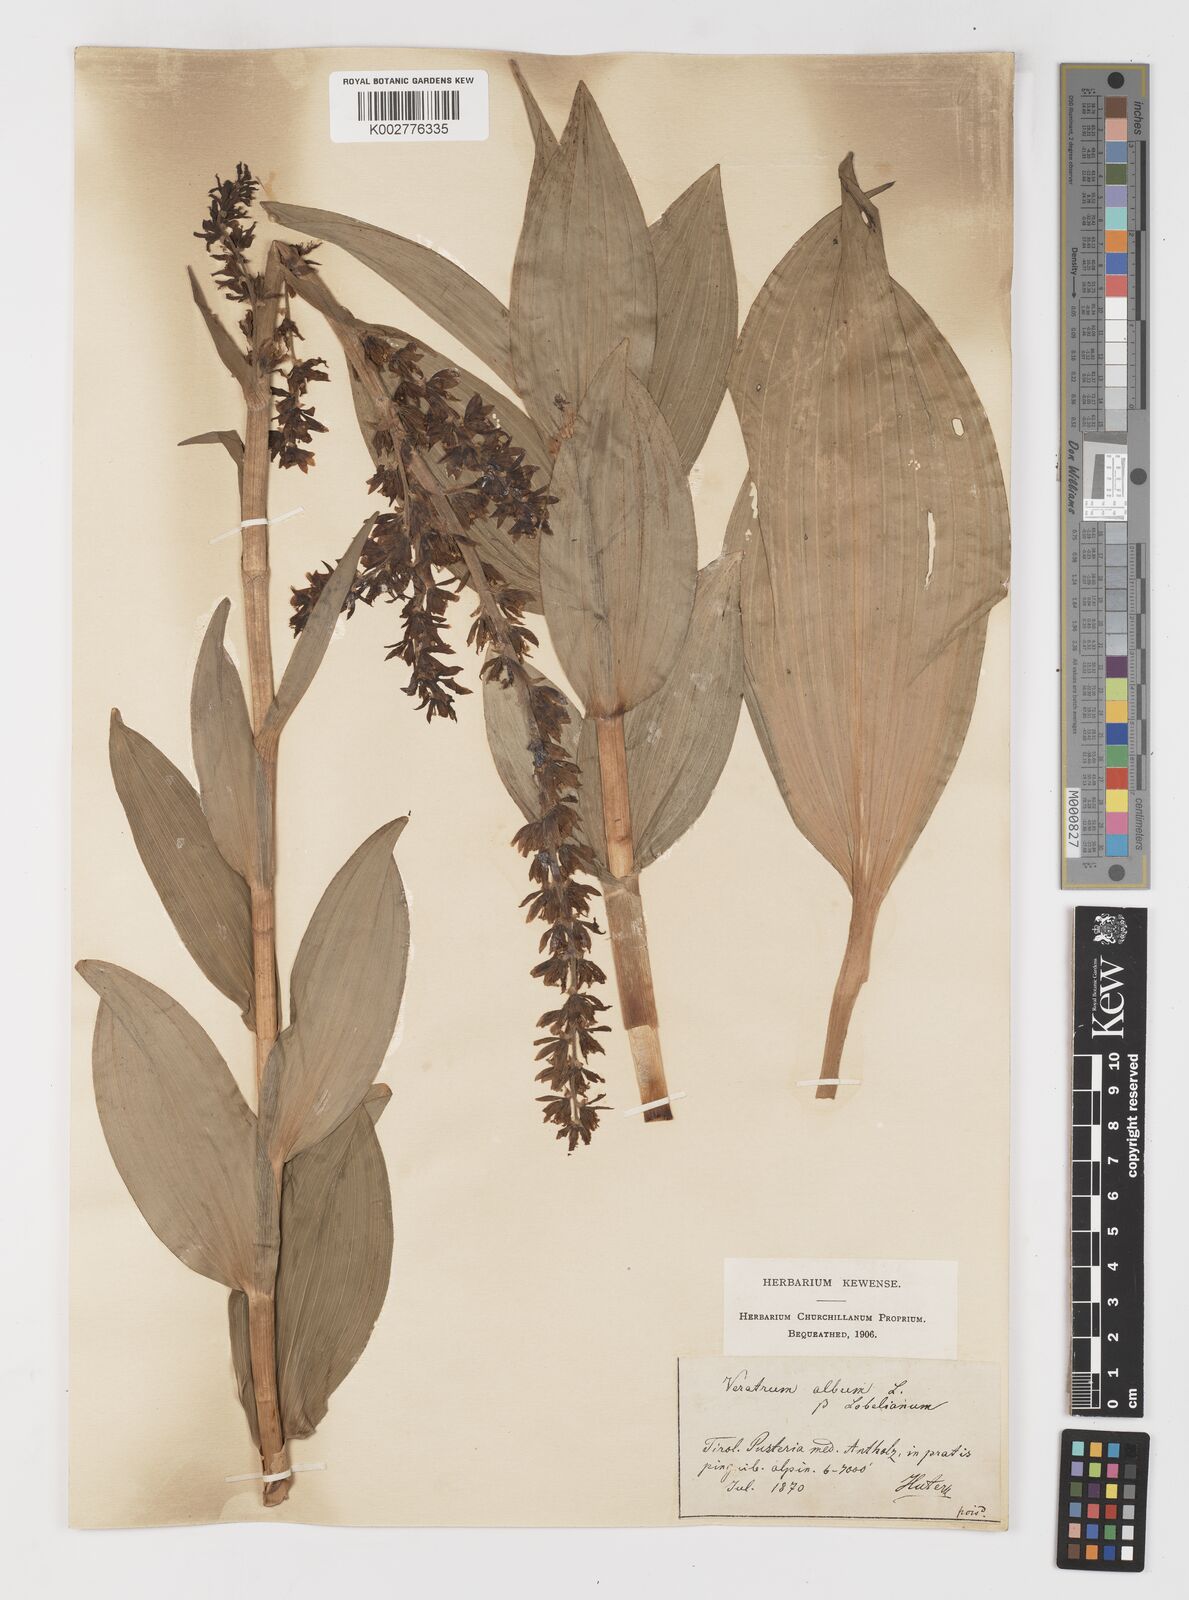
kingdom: Plantae
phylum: Tracheophyta
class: Liliopsida
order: Liliales
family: Melanthiaceae
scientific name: Melanthiaceae
